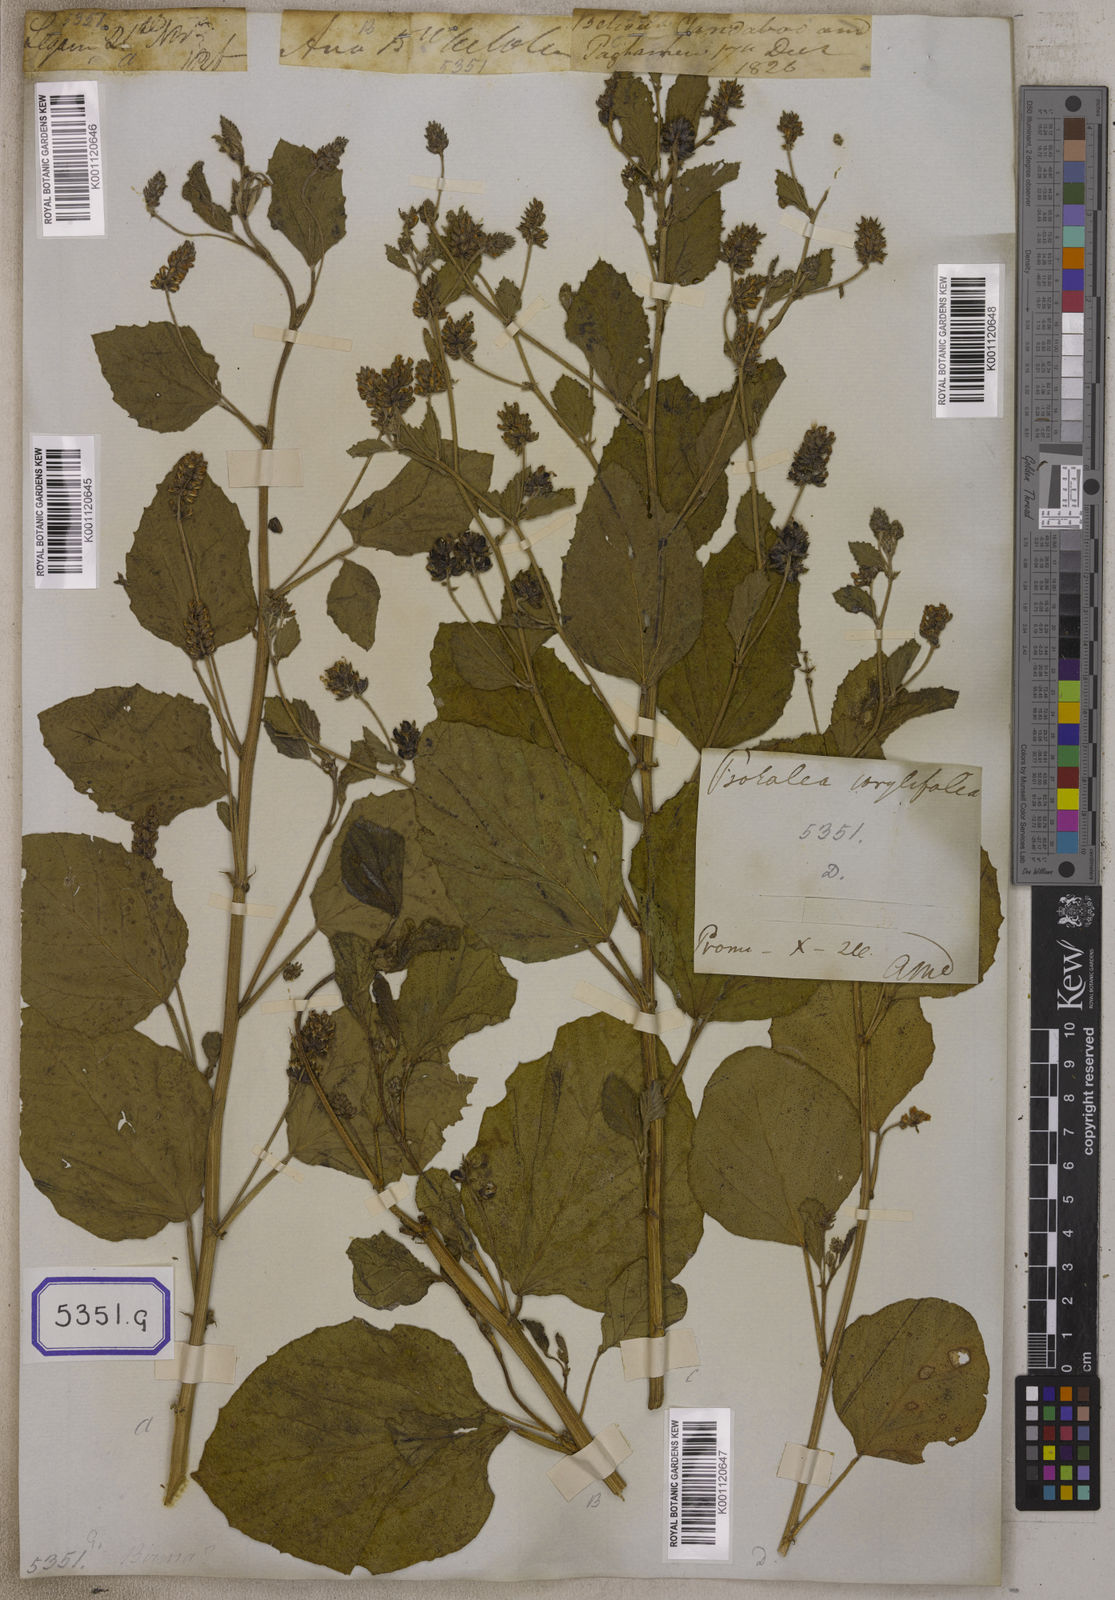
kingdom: Plantae
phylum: Tracheophyta
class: Magnoliopsida
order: Fabales
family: Fabaceae
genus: Cullen
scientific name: Cullen corylifolium
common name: Malaysian scurfpea
